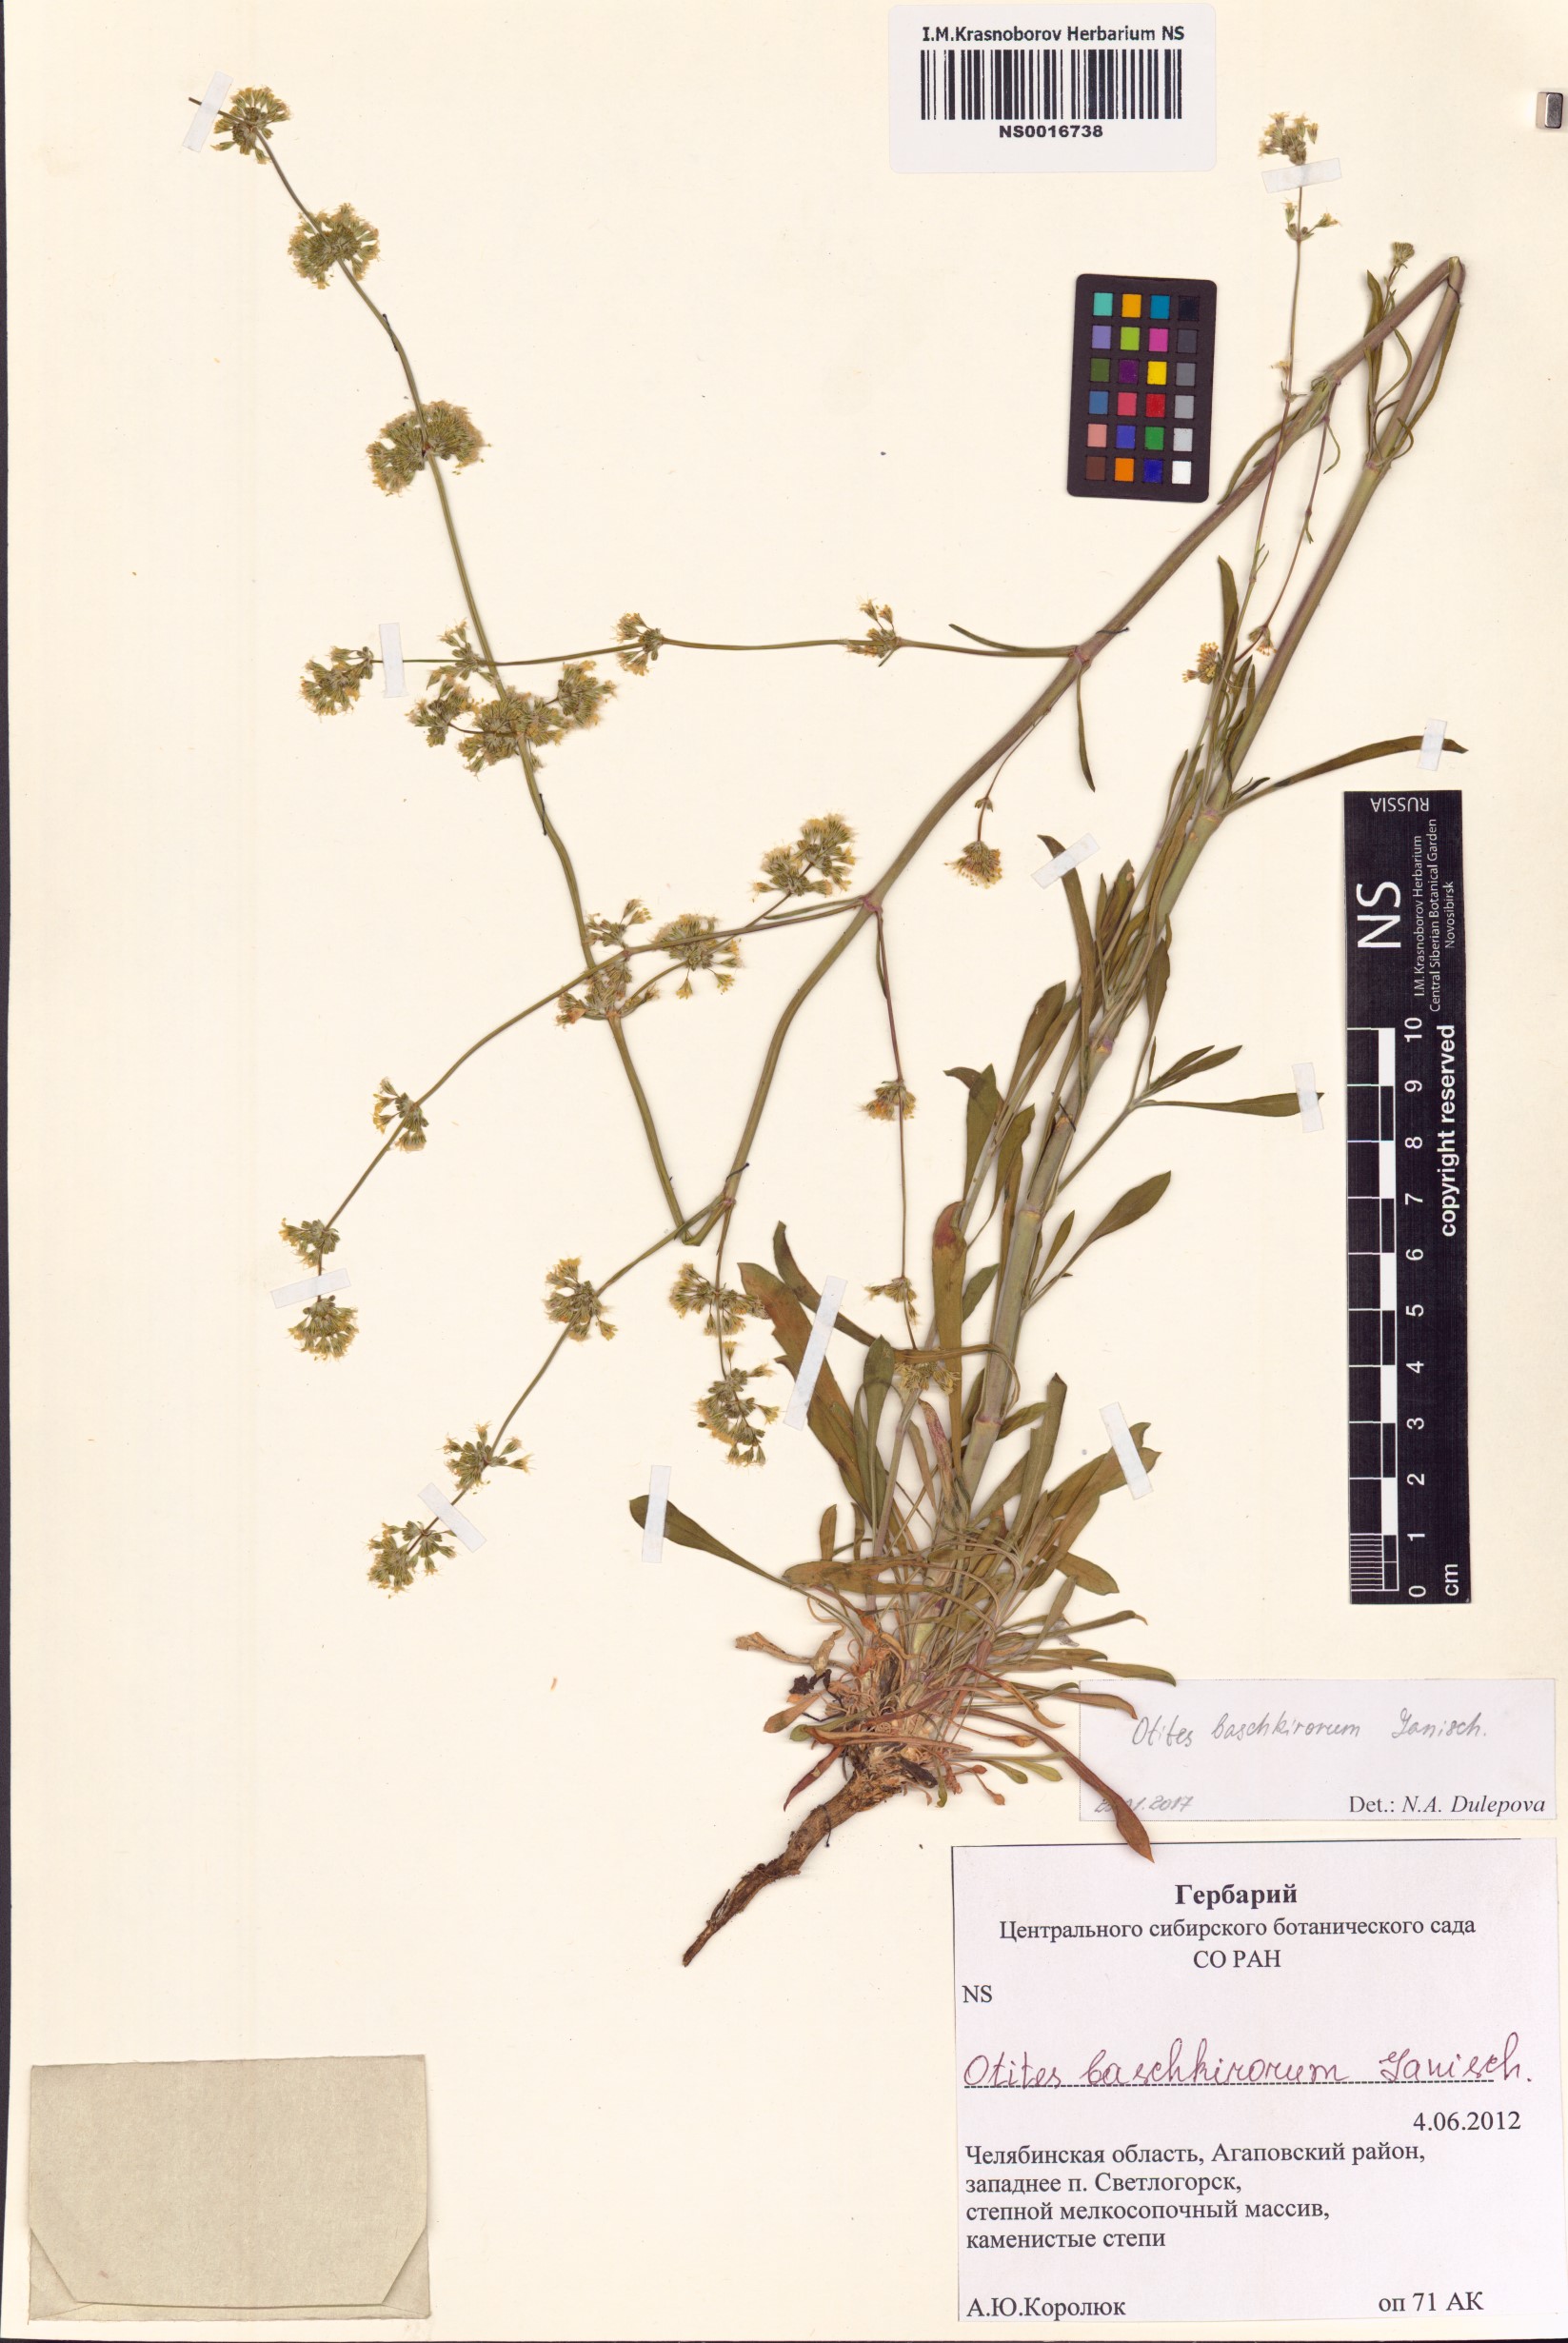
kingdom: Plantae
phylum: Tracheophyta
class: Magnoliopsida
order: Caryophyllales
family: Caryophyllaceae
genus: Silene
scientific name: Silene baschkirorum
